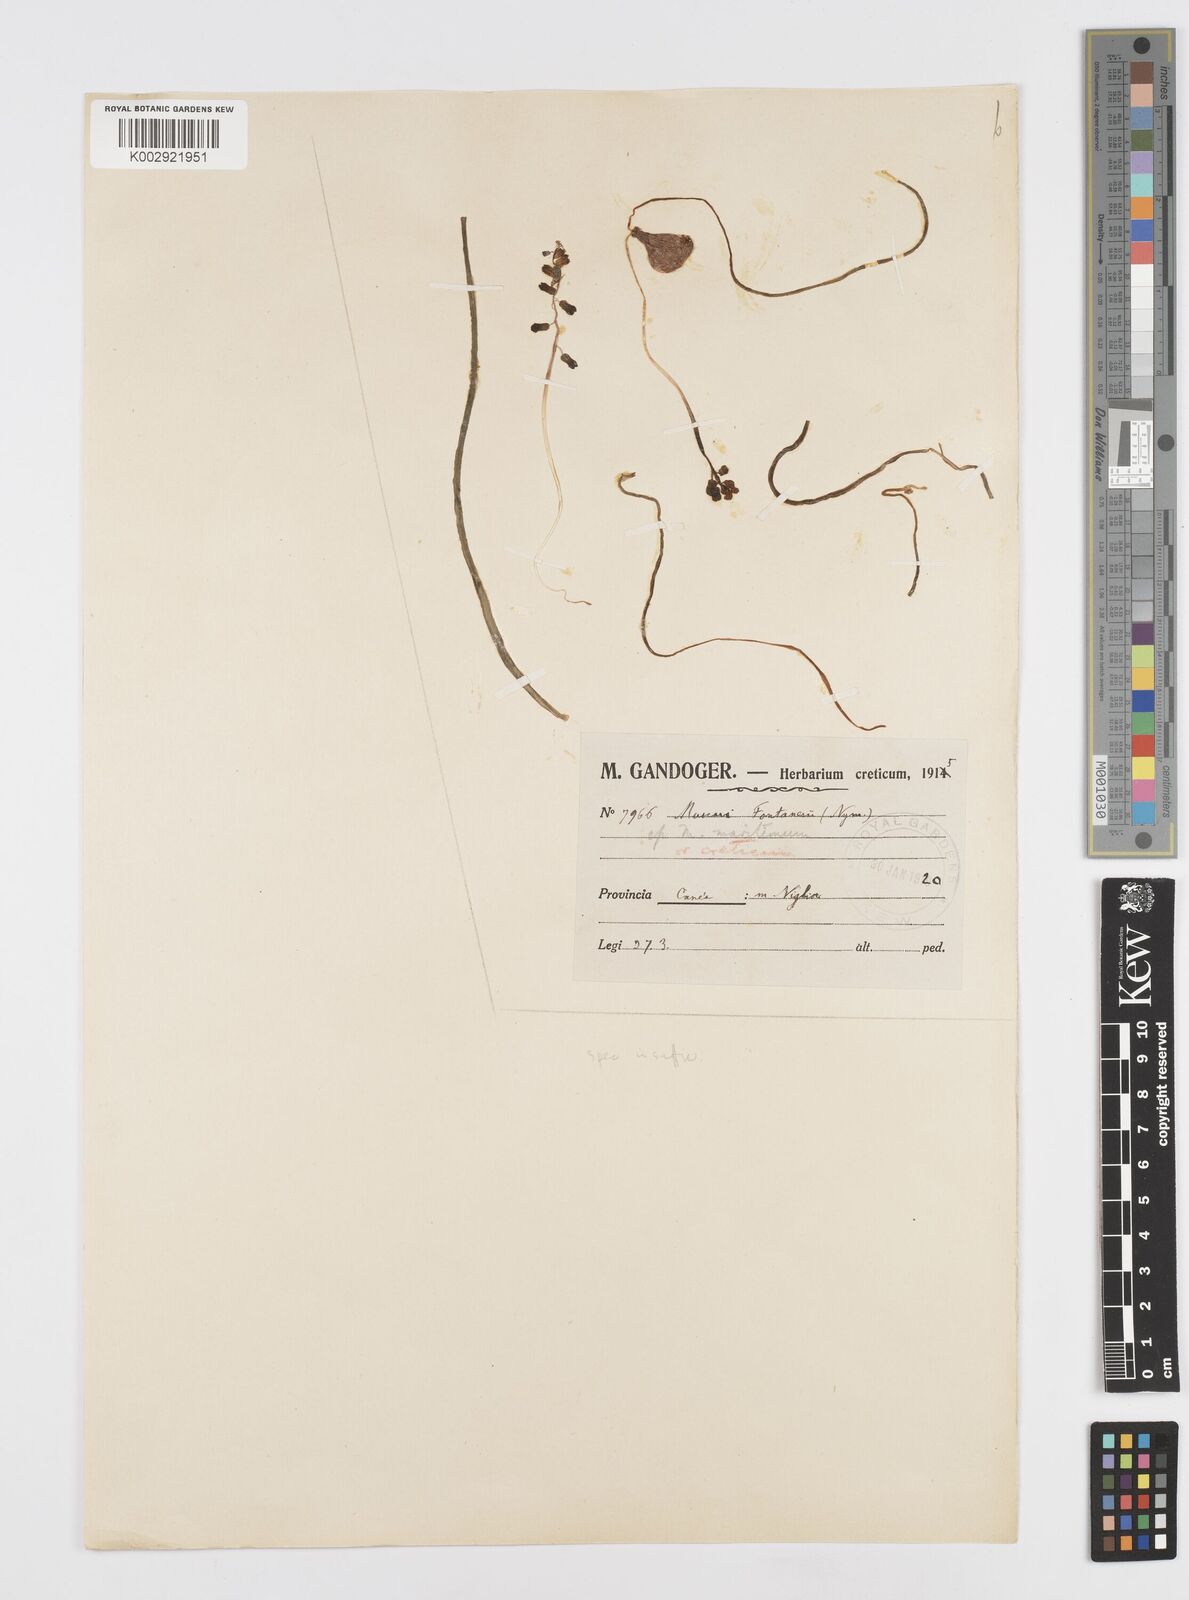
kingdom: Animalia
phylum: Mollusca
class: Cephalopoda
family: Neocomitidae
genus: Leopoldia
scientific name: Leopoldia
